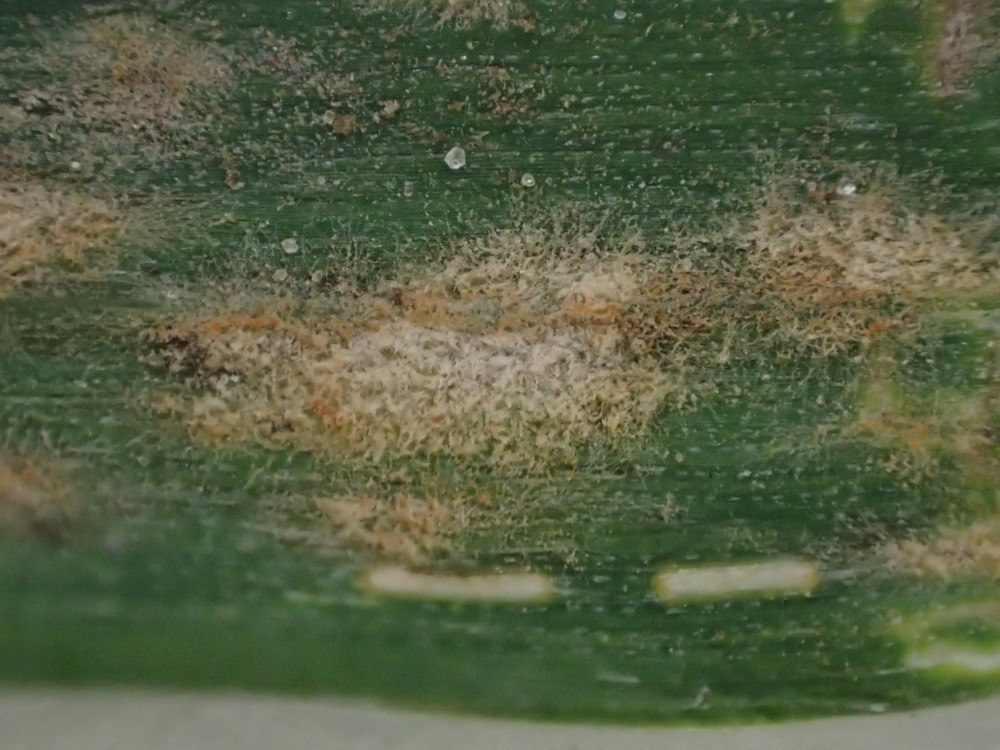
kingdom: Fungi
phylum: Ascomycota
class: Leotiomycetes
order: Helotiales
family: Erysiphaceae
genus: Blumeria
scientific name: Blumeria graminis
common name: græs-meldug
